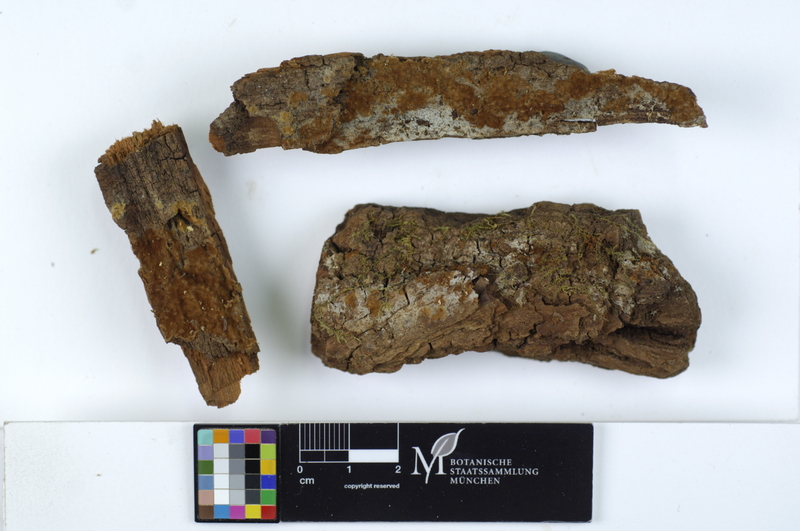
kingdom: Plantae
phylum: Tracheophyta
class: Magnoliopsida
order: Malpighiales
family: Salicaceae
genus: Populus
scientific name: Populus
